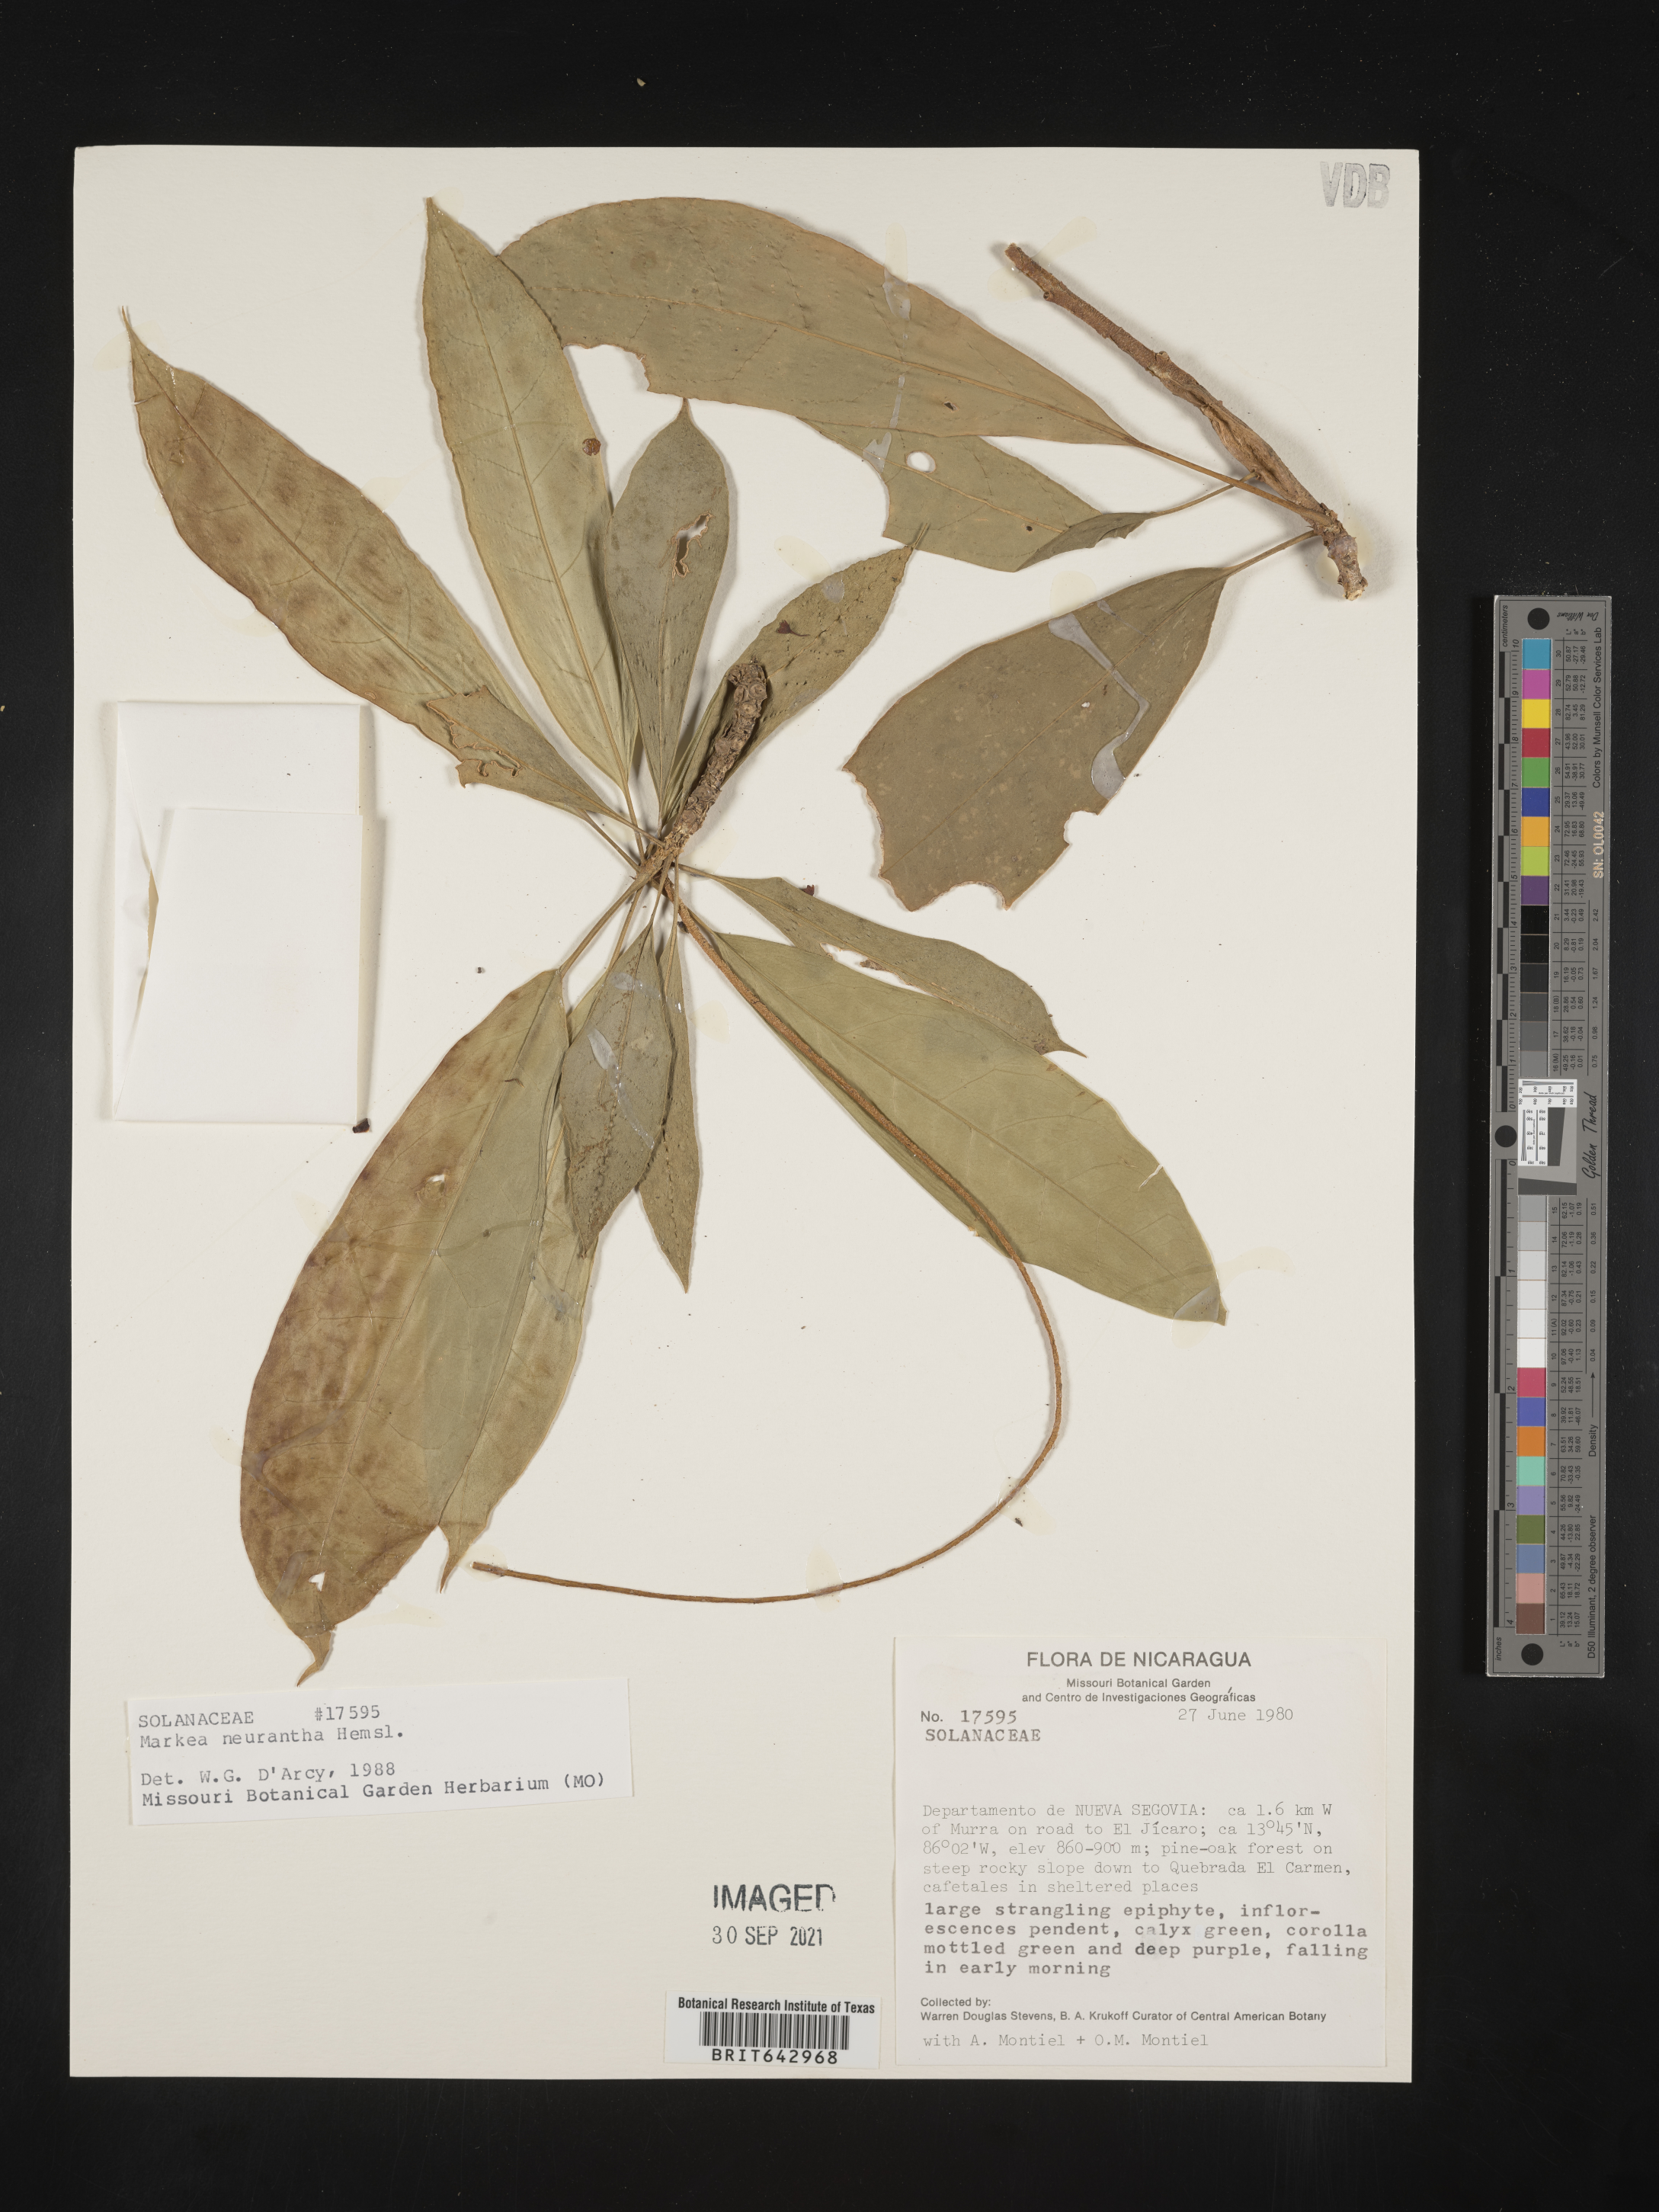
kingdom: Plantae
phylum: Tracheophyta
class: Magnoliopsida
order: Solanales
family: Solanaceae
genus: Markea
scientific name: Markea
